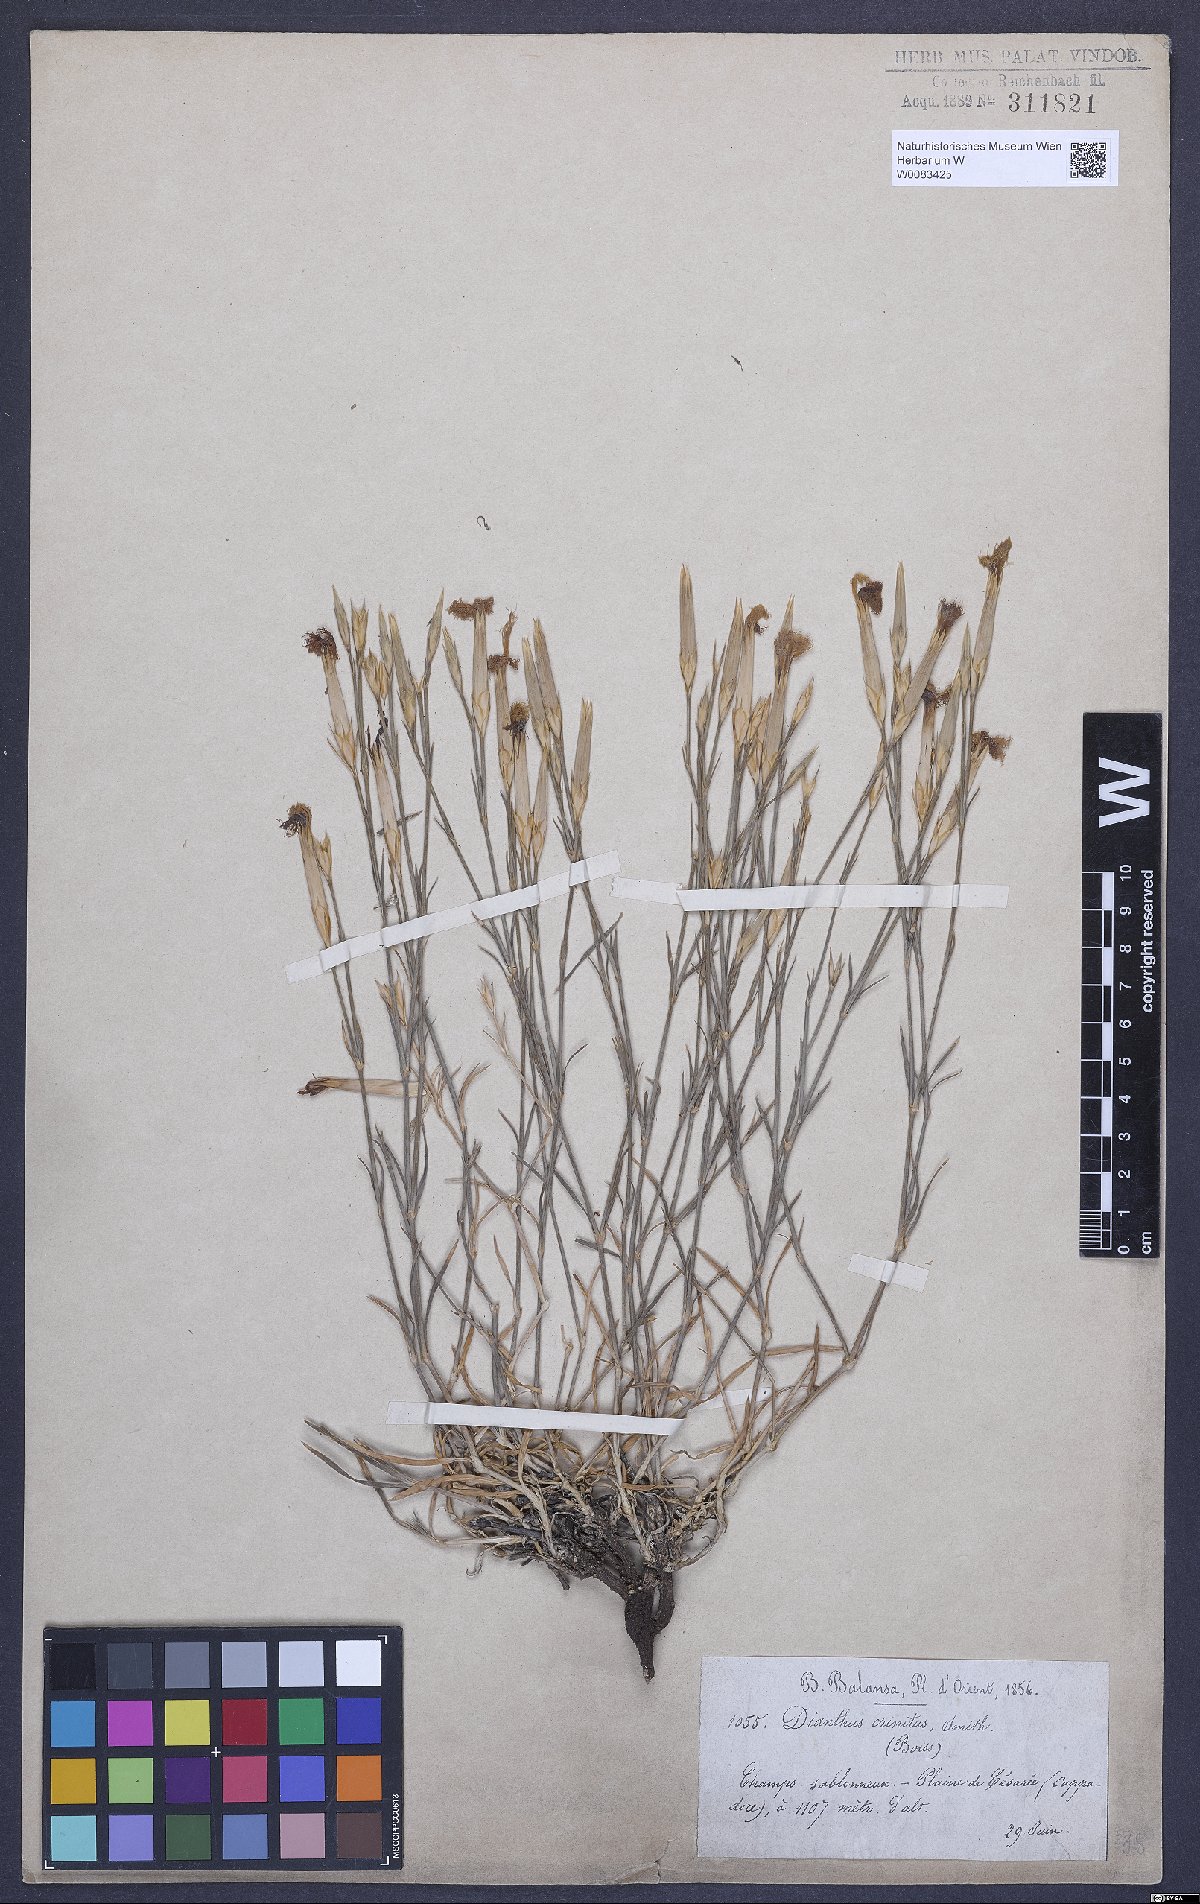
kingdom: Plantae
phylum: Tracheophyta
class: Magnoliopsida
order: Caryophyllales
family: Caryophyllaceae
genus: Dianthus
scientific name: Dianthus crinitus
